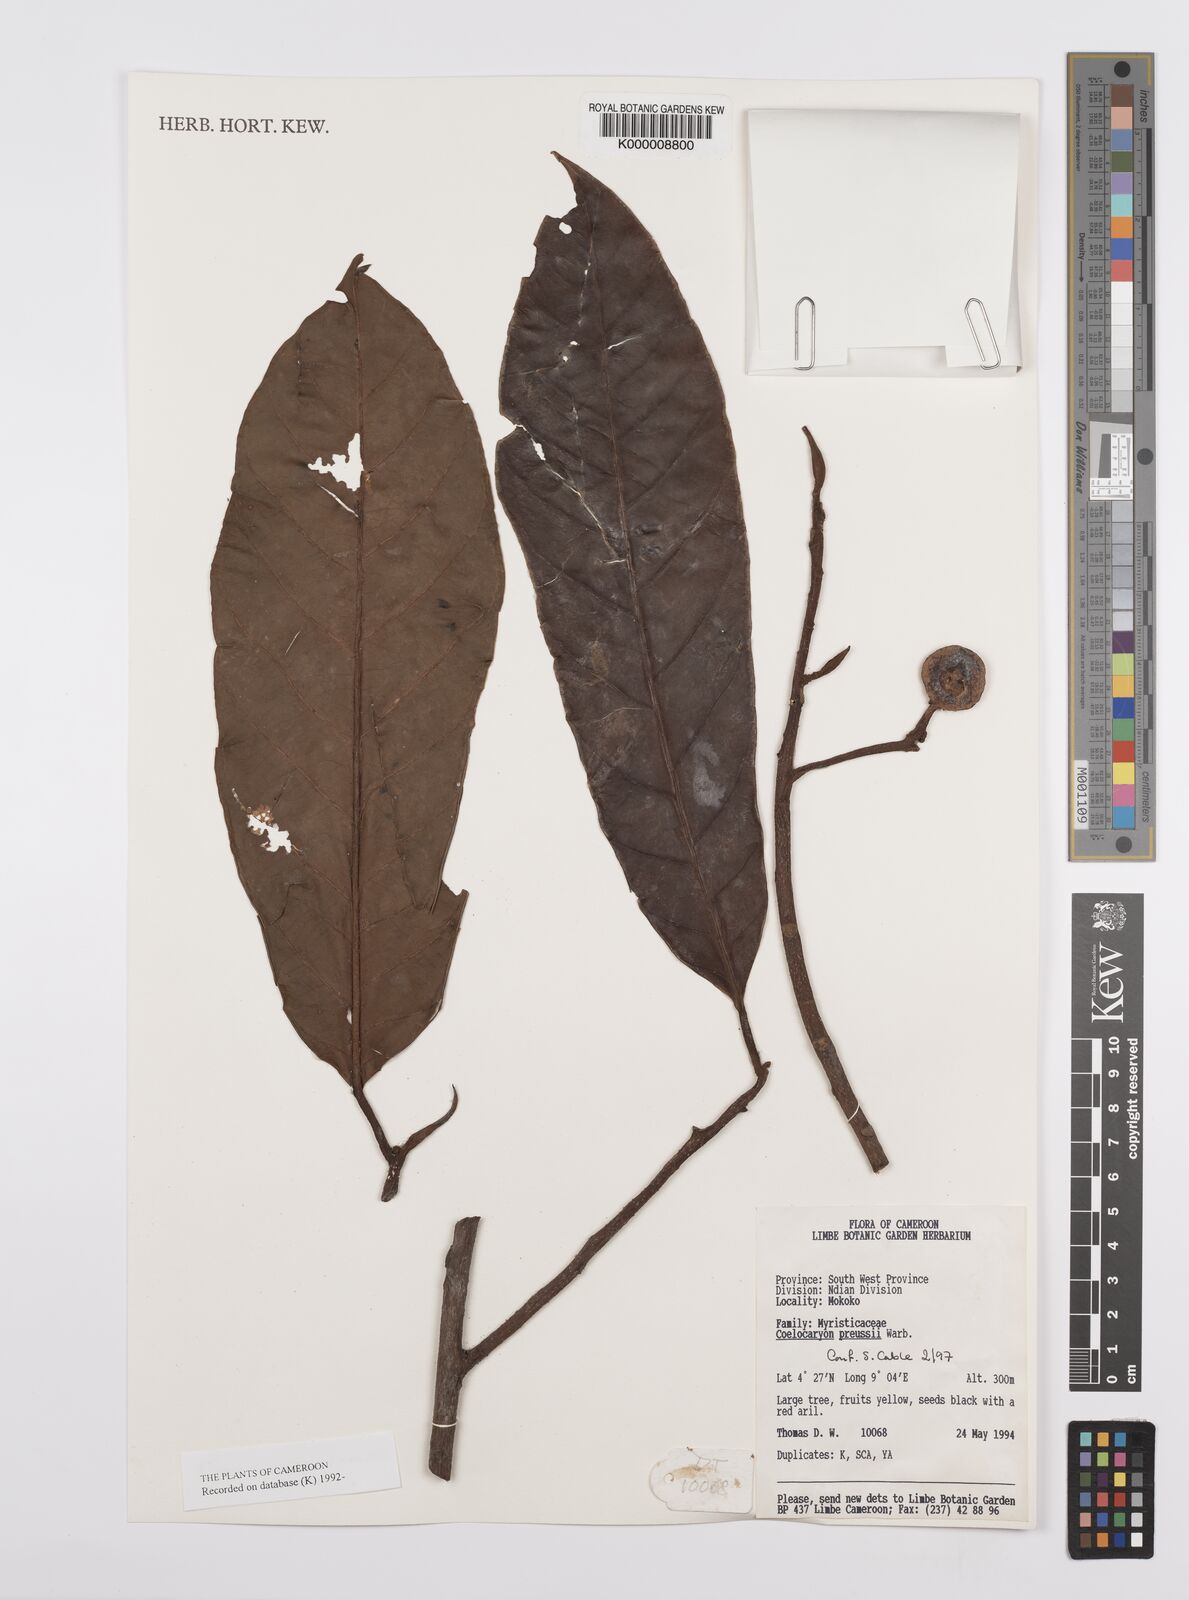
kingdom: Plantae
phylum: Tracheophyta
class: Magnoliopsida
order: Magnoliales
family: Myristicaceae
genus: Coelocaryon
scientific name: Coelocaryon preussii
